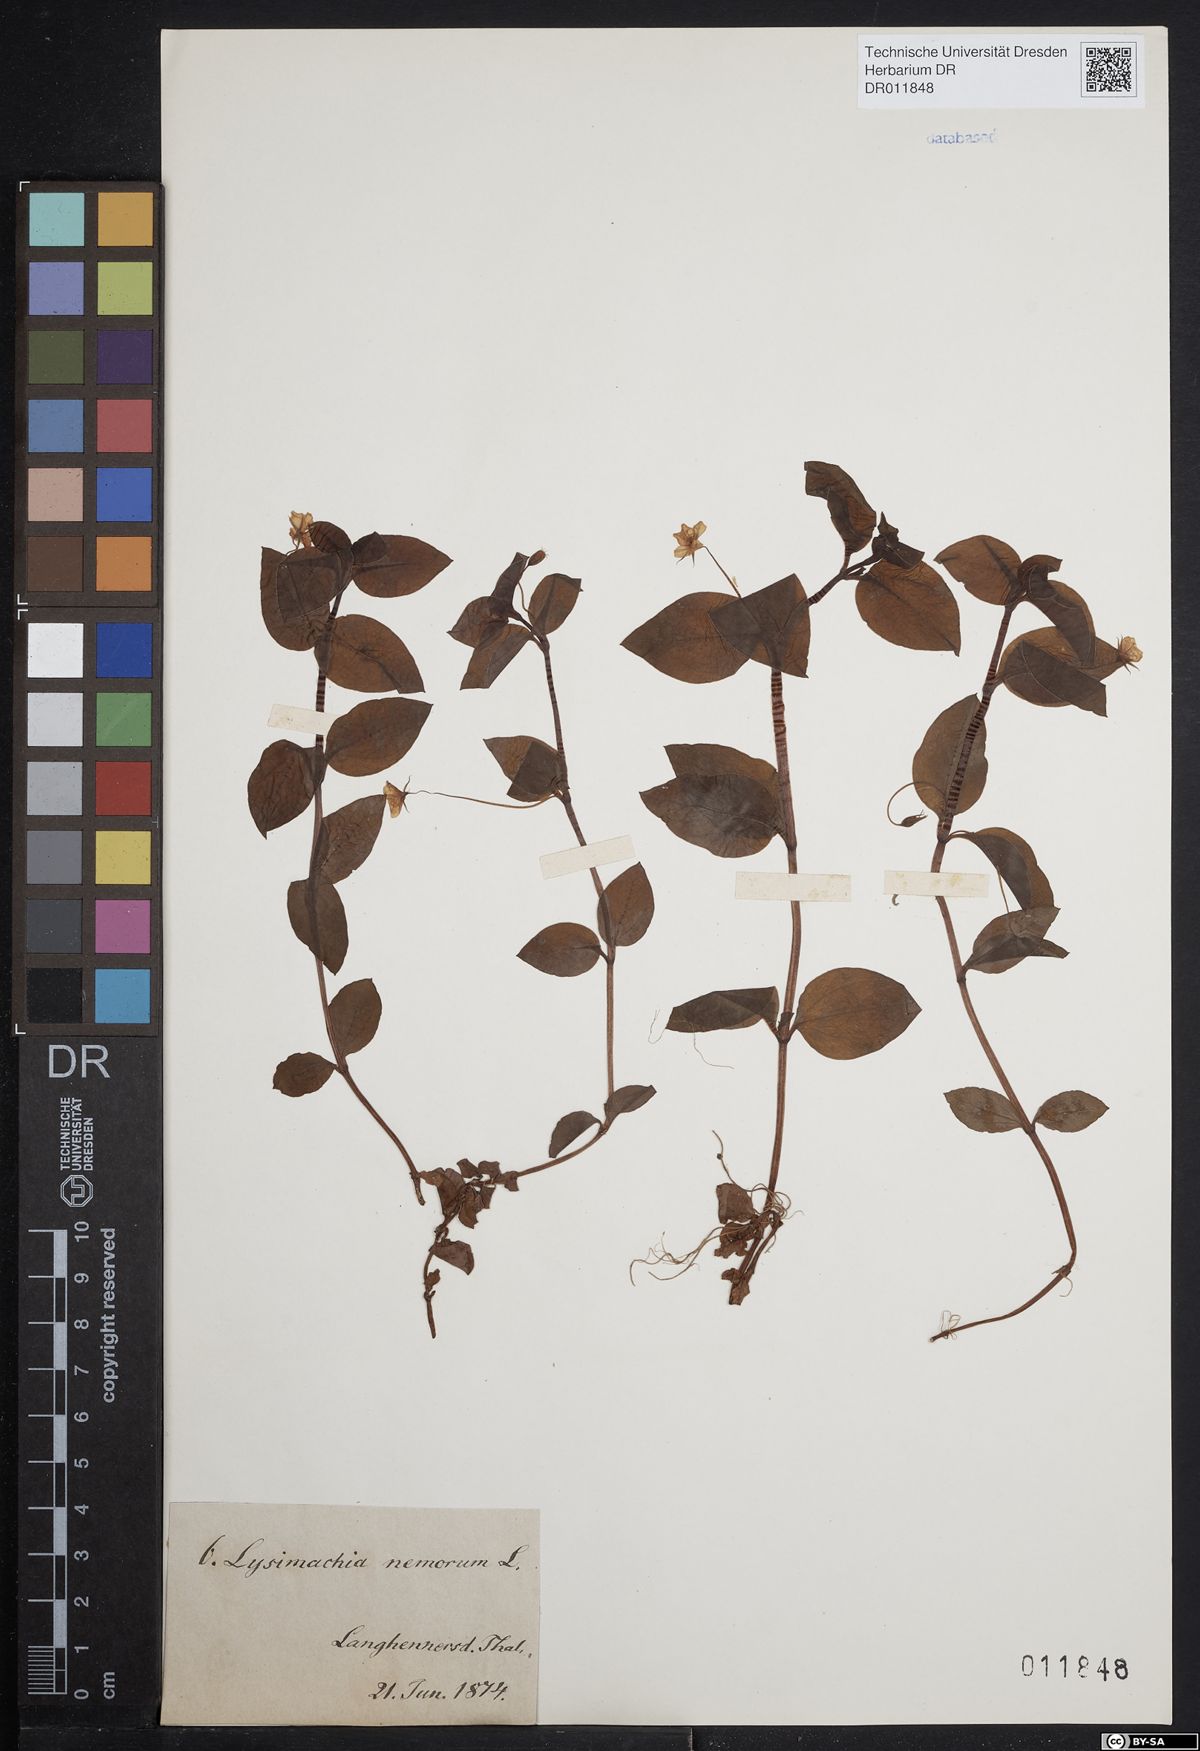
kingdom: Plantae
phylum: Tracheophyta
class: Magnoliopsida
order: Ericales
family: Primulaceae
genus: Lysimachia
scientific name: Lysimachia nemorum
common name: Yellow pimpernel
